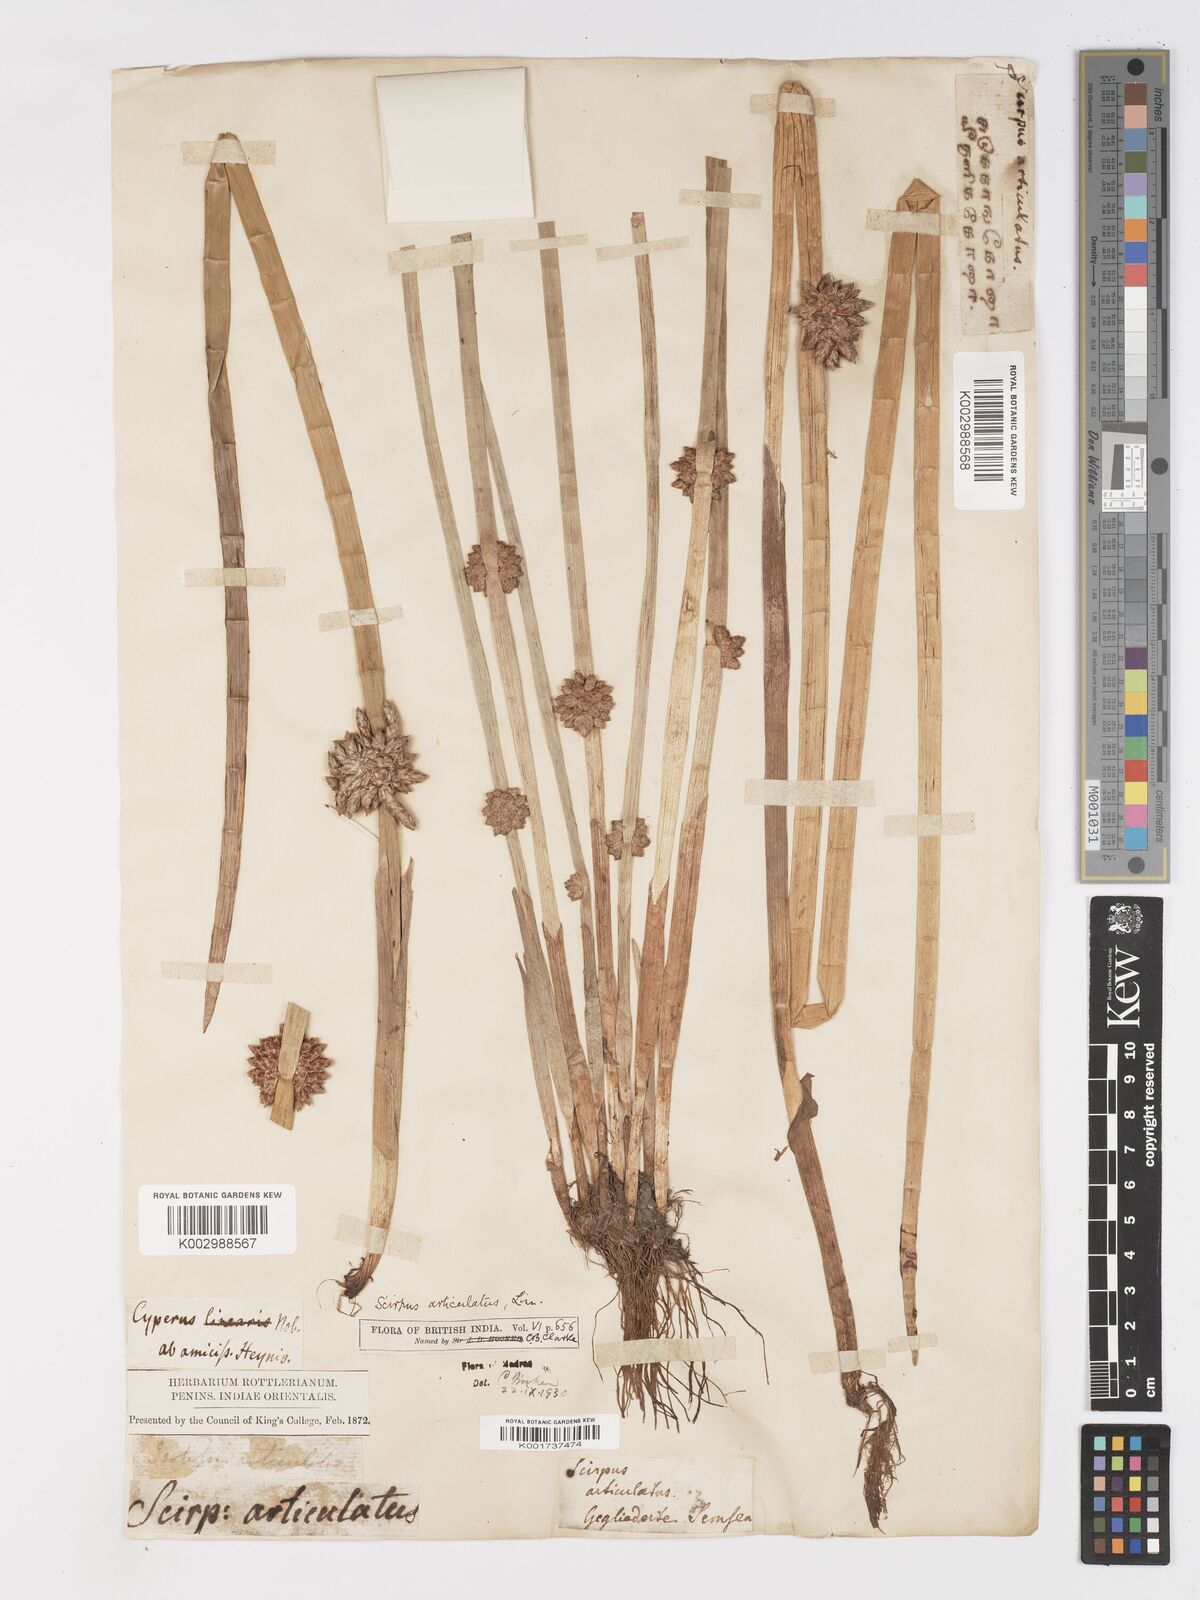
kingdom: Plantae
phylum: Tracheophyta
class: Liliopsida
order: Poales
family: Cyperaceae
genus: Schoenoplectiella
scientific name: Schoenoplectiella articulata
